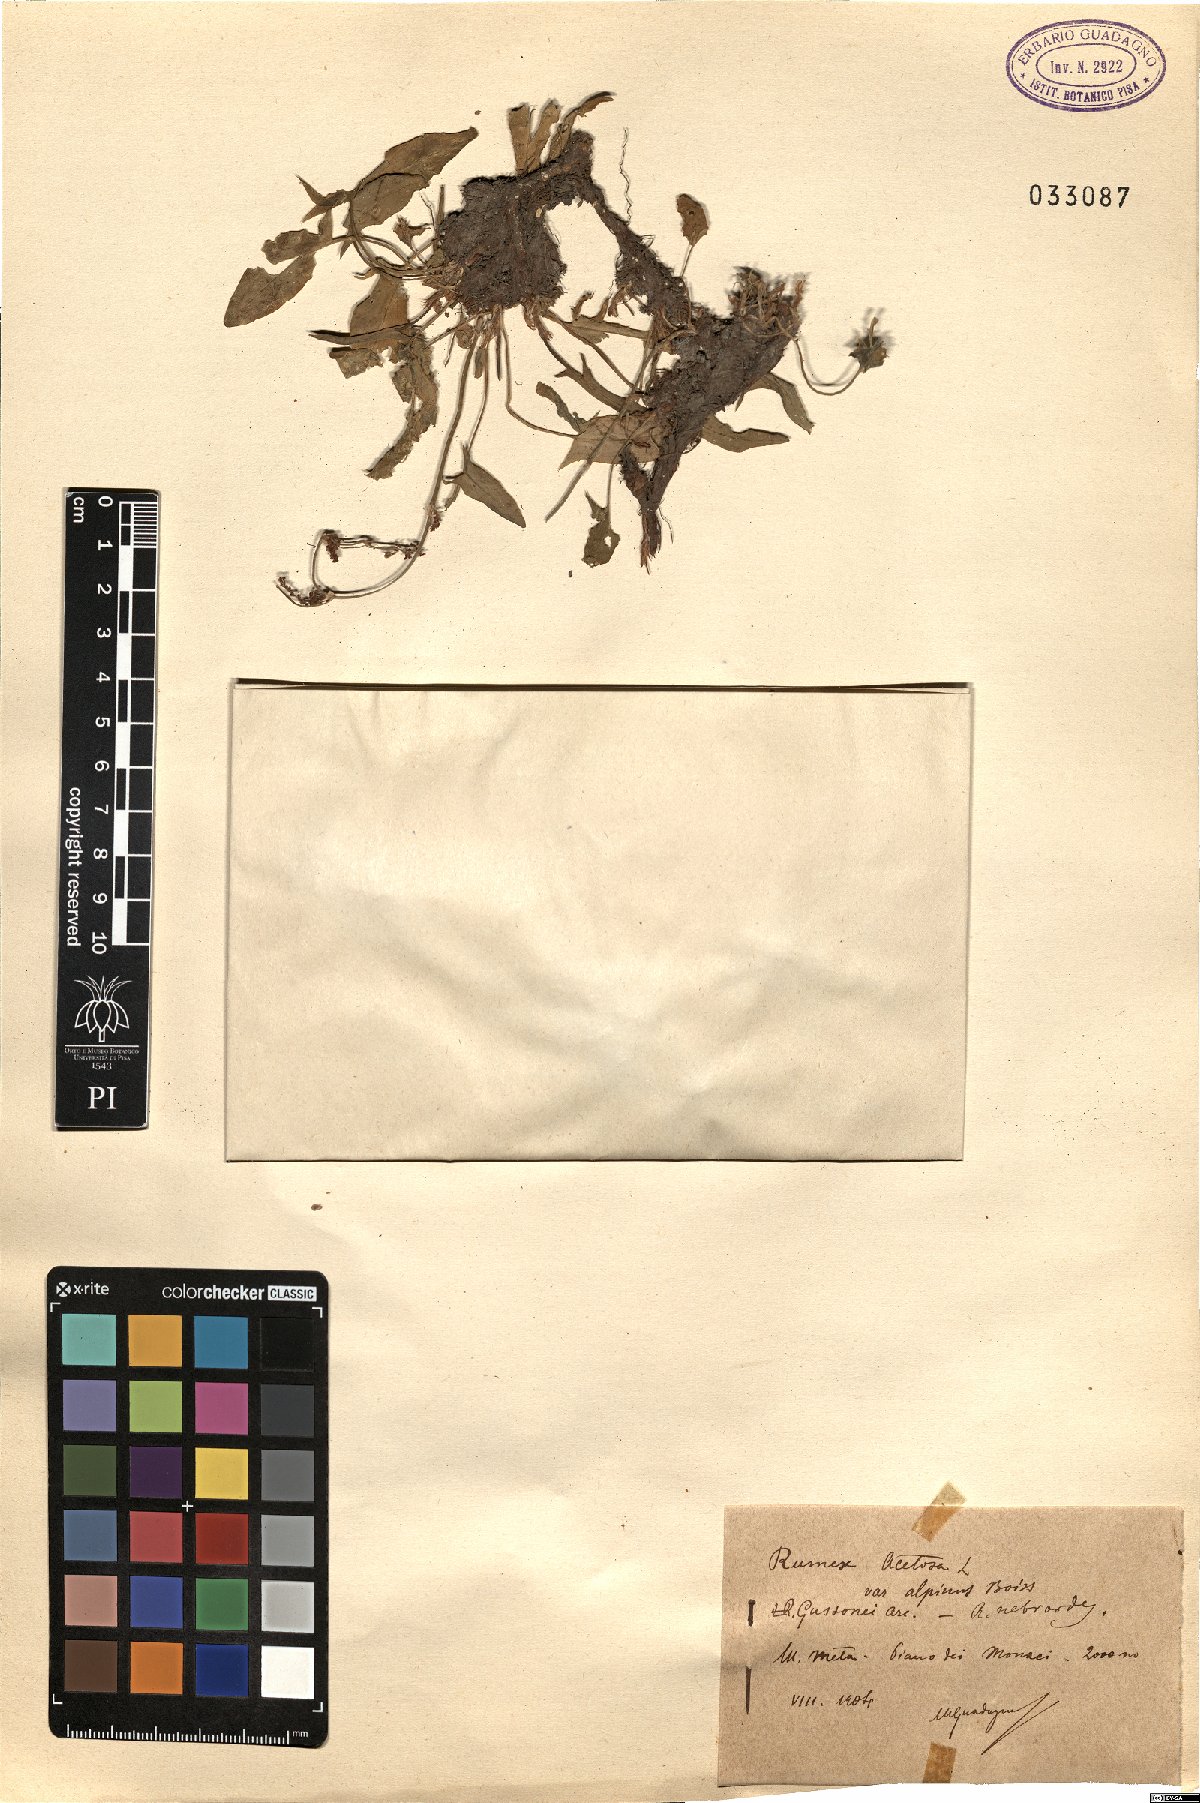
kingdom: Plantae
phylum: Tracheophyta
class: Magnoliopsida
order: Caryophyllales
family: Polygonaceae
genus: Rumex
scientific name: Rumex nebroides
